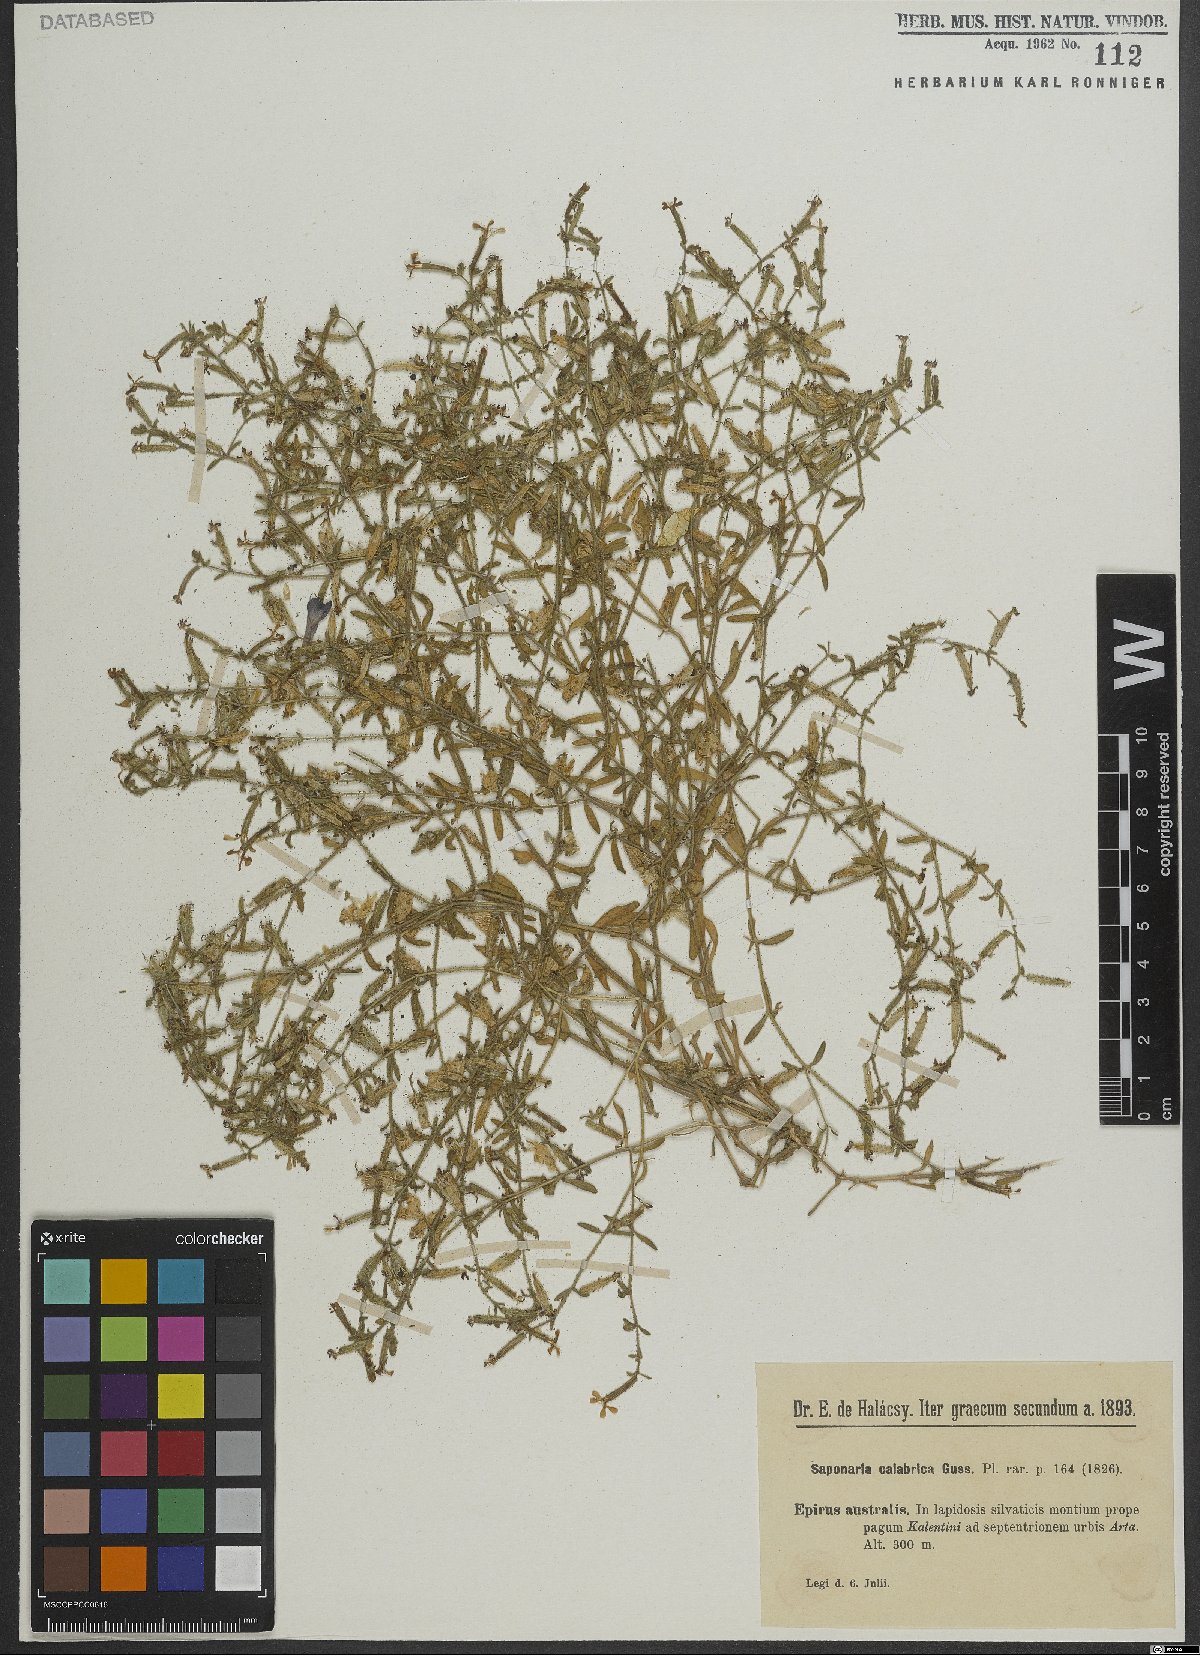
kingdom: Plantae
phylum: Tracheophyta
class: Magnoliopsida
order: Caryophyllales
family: Caryophyllaceae
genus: Saponaria
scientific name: Saponaria calabrica
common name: Adriatic soapwort
